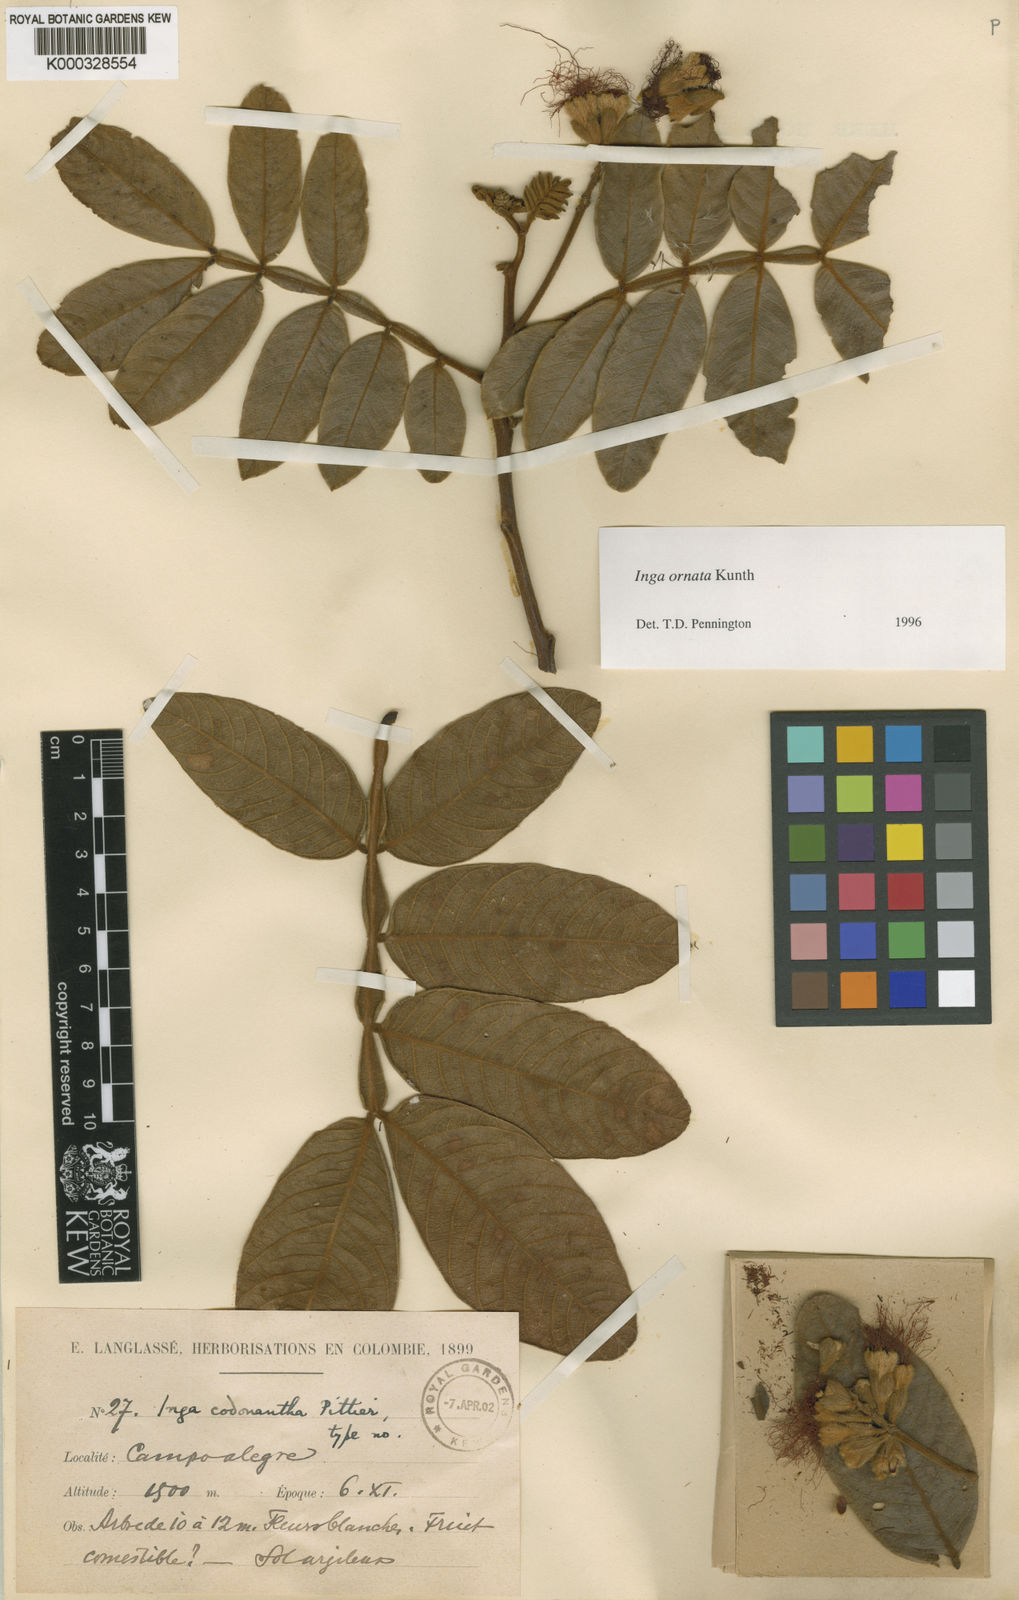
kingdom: Plantae
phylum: Tracheophyta
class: Magnoliopsida
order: Fabales
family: Fabaceae
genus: Inga
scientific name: Inga ornata
